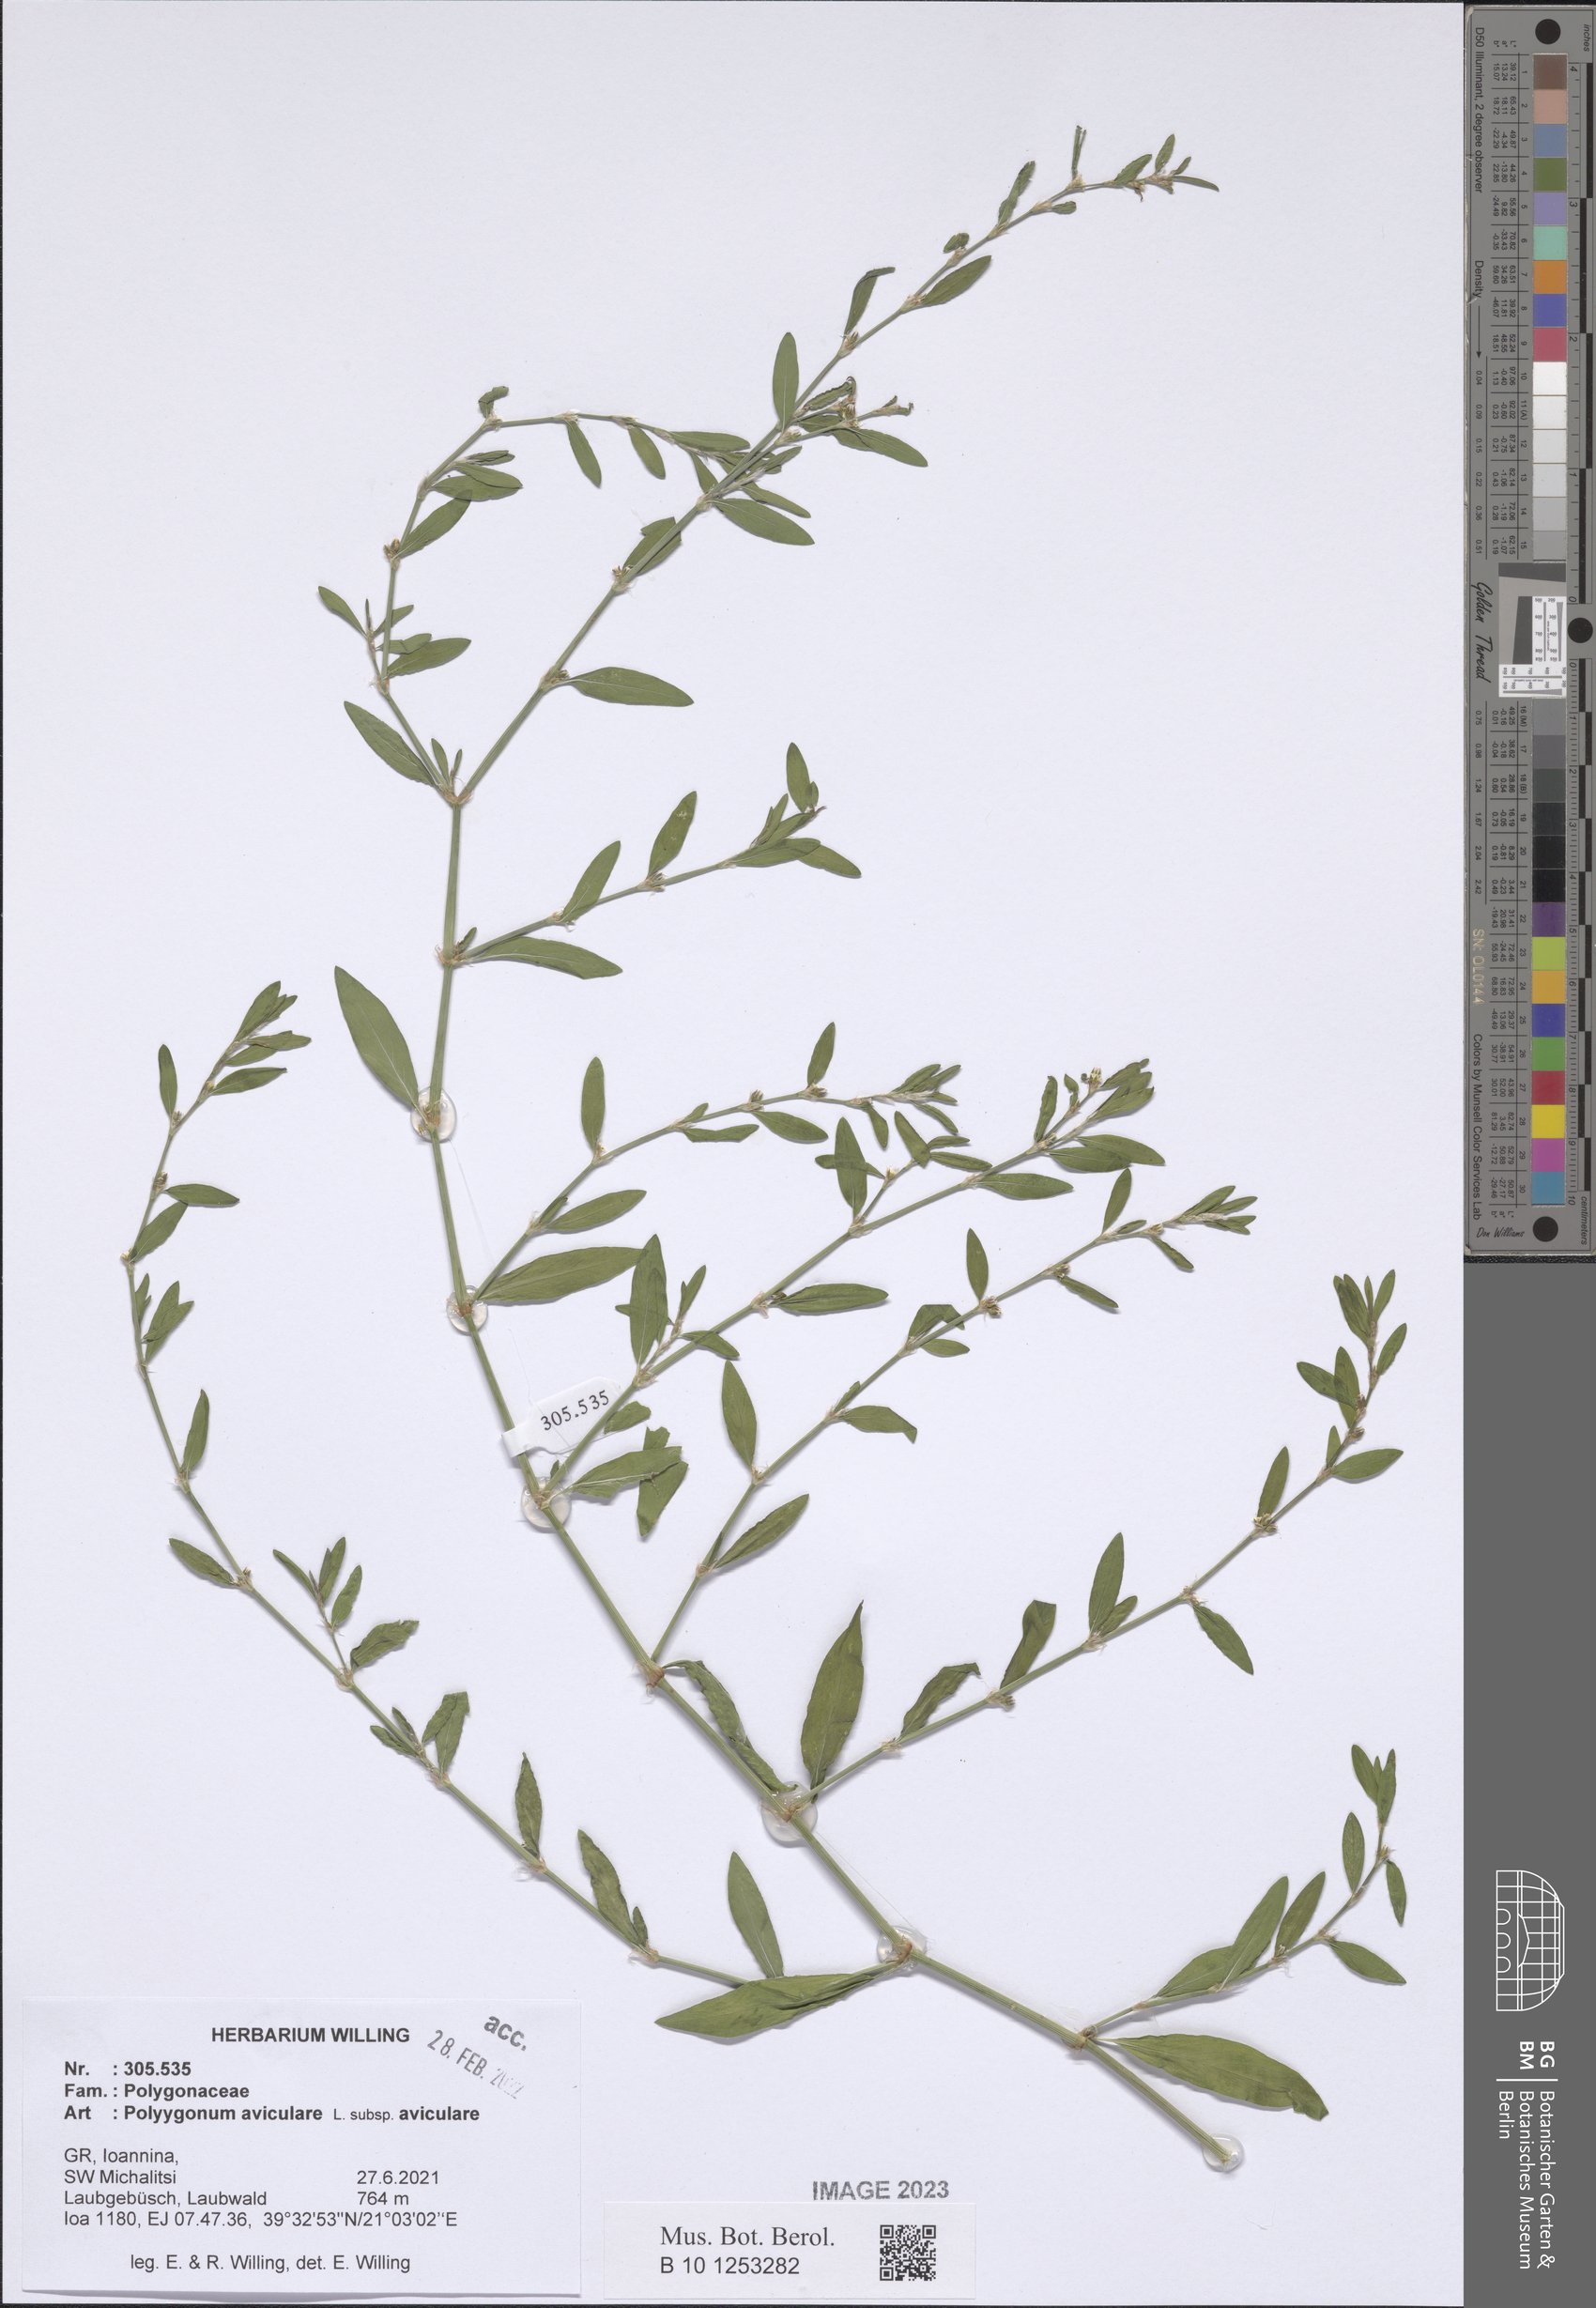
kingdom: Plantae
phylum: Tracheophyta
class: Magnoliopsida
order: Caryophyllales
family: Polygonaceae
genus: Polygonum
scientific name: Polygonum aviculare
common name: Prostrate knotweed
